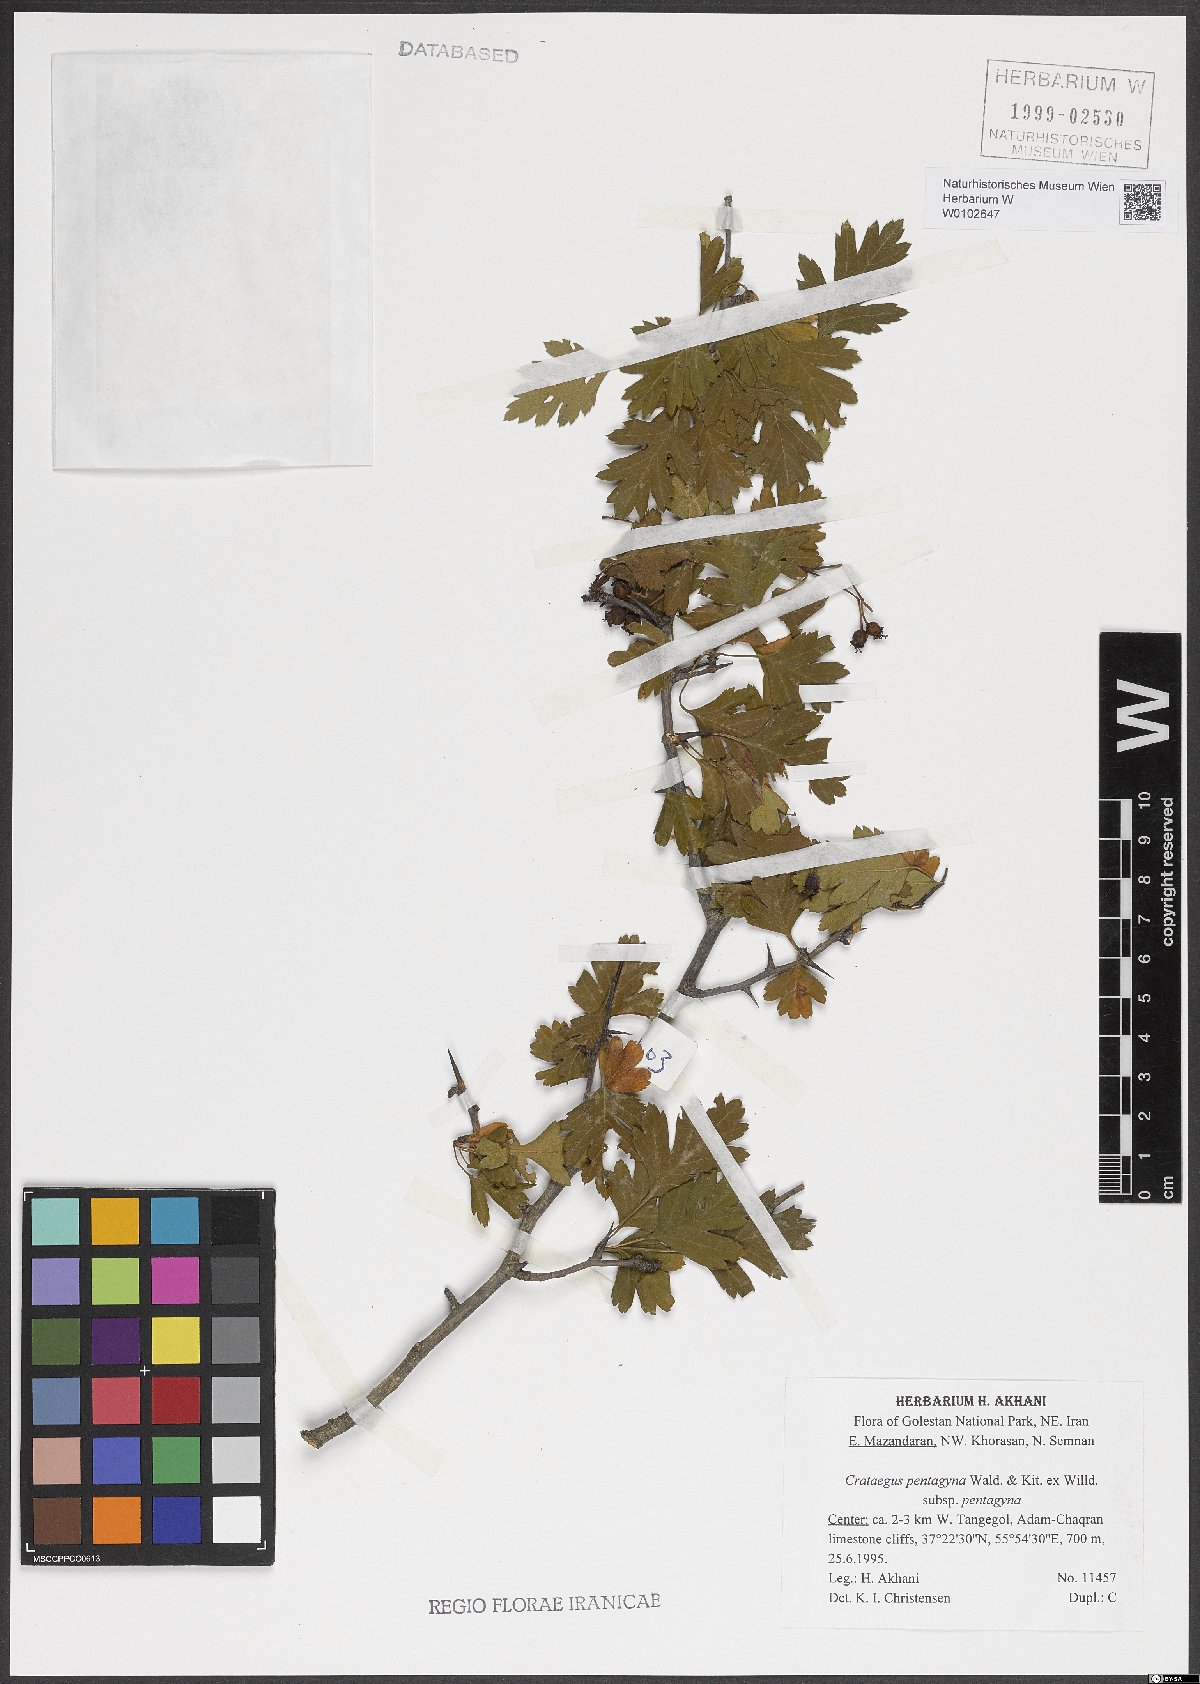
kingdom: Plantae
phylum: Tracheophyta
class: Magnoliopsida
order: Rosales
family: Rosaceae
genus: Crataegus
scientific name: Crataegus pentagyna
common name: Small-flowered black hawthorn
